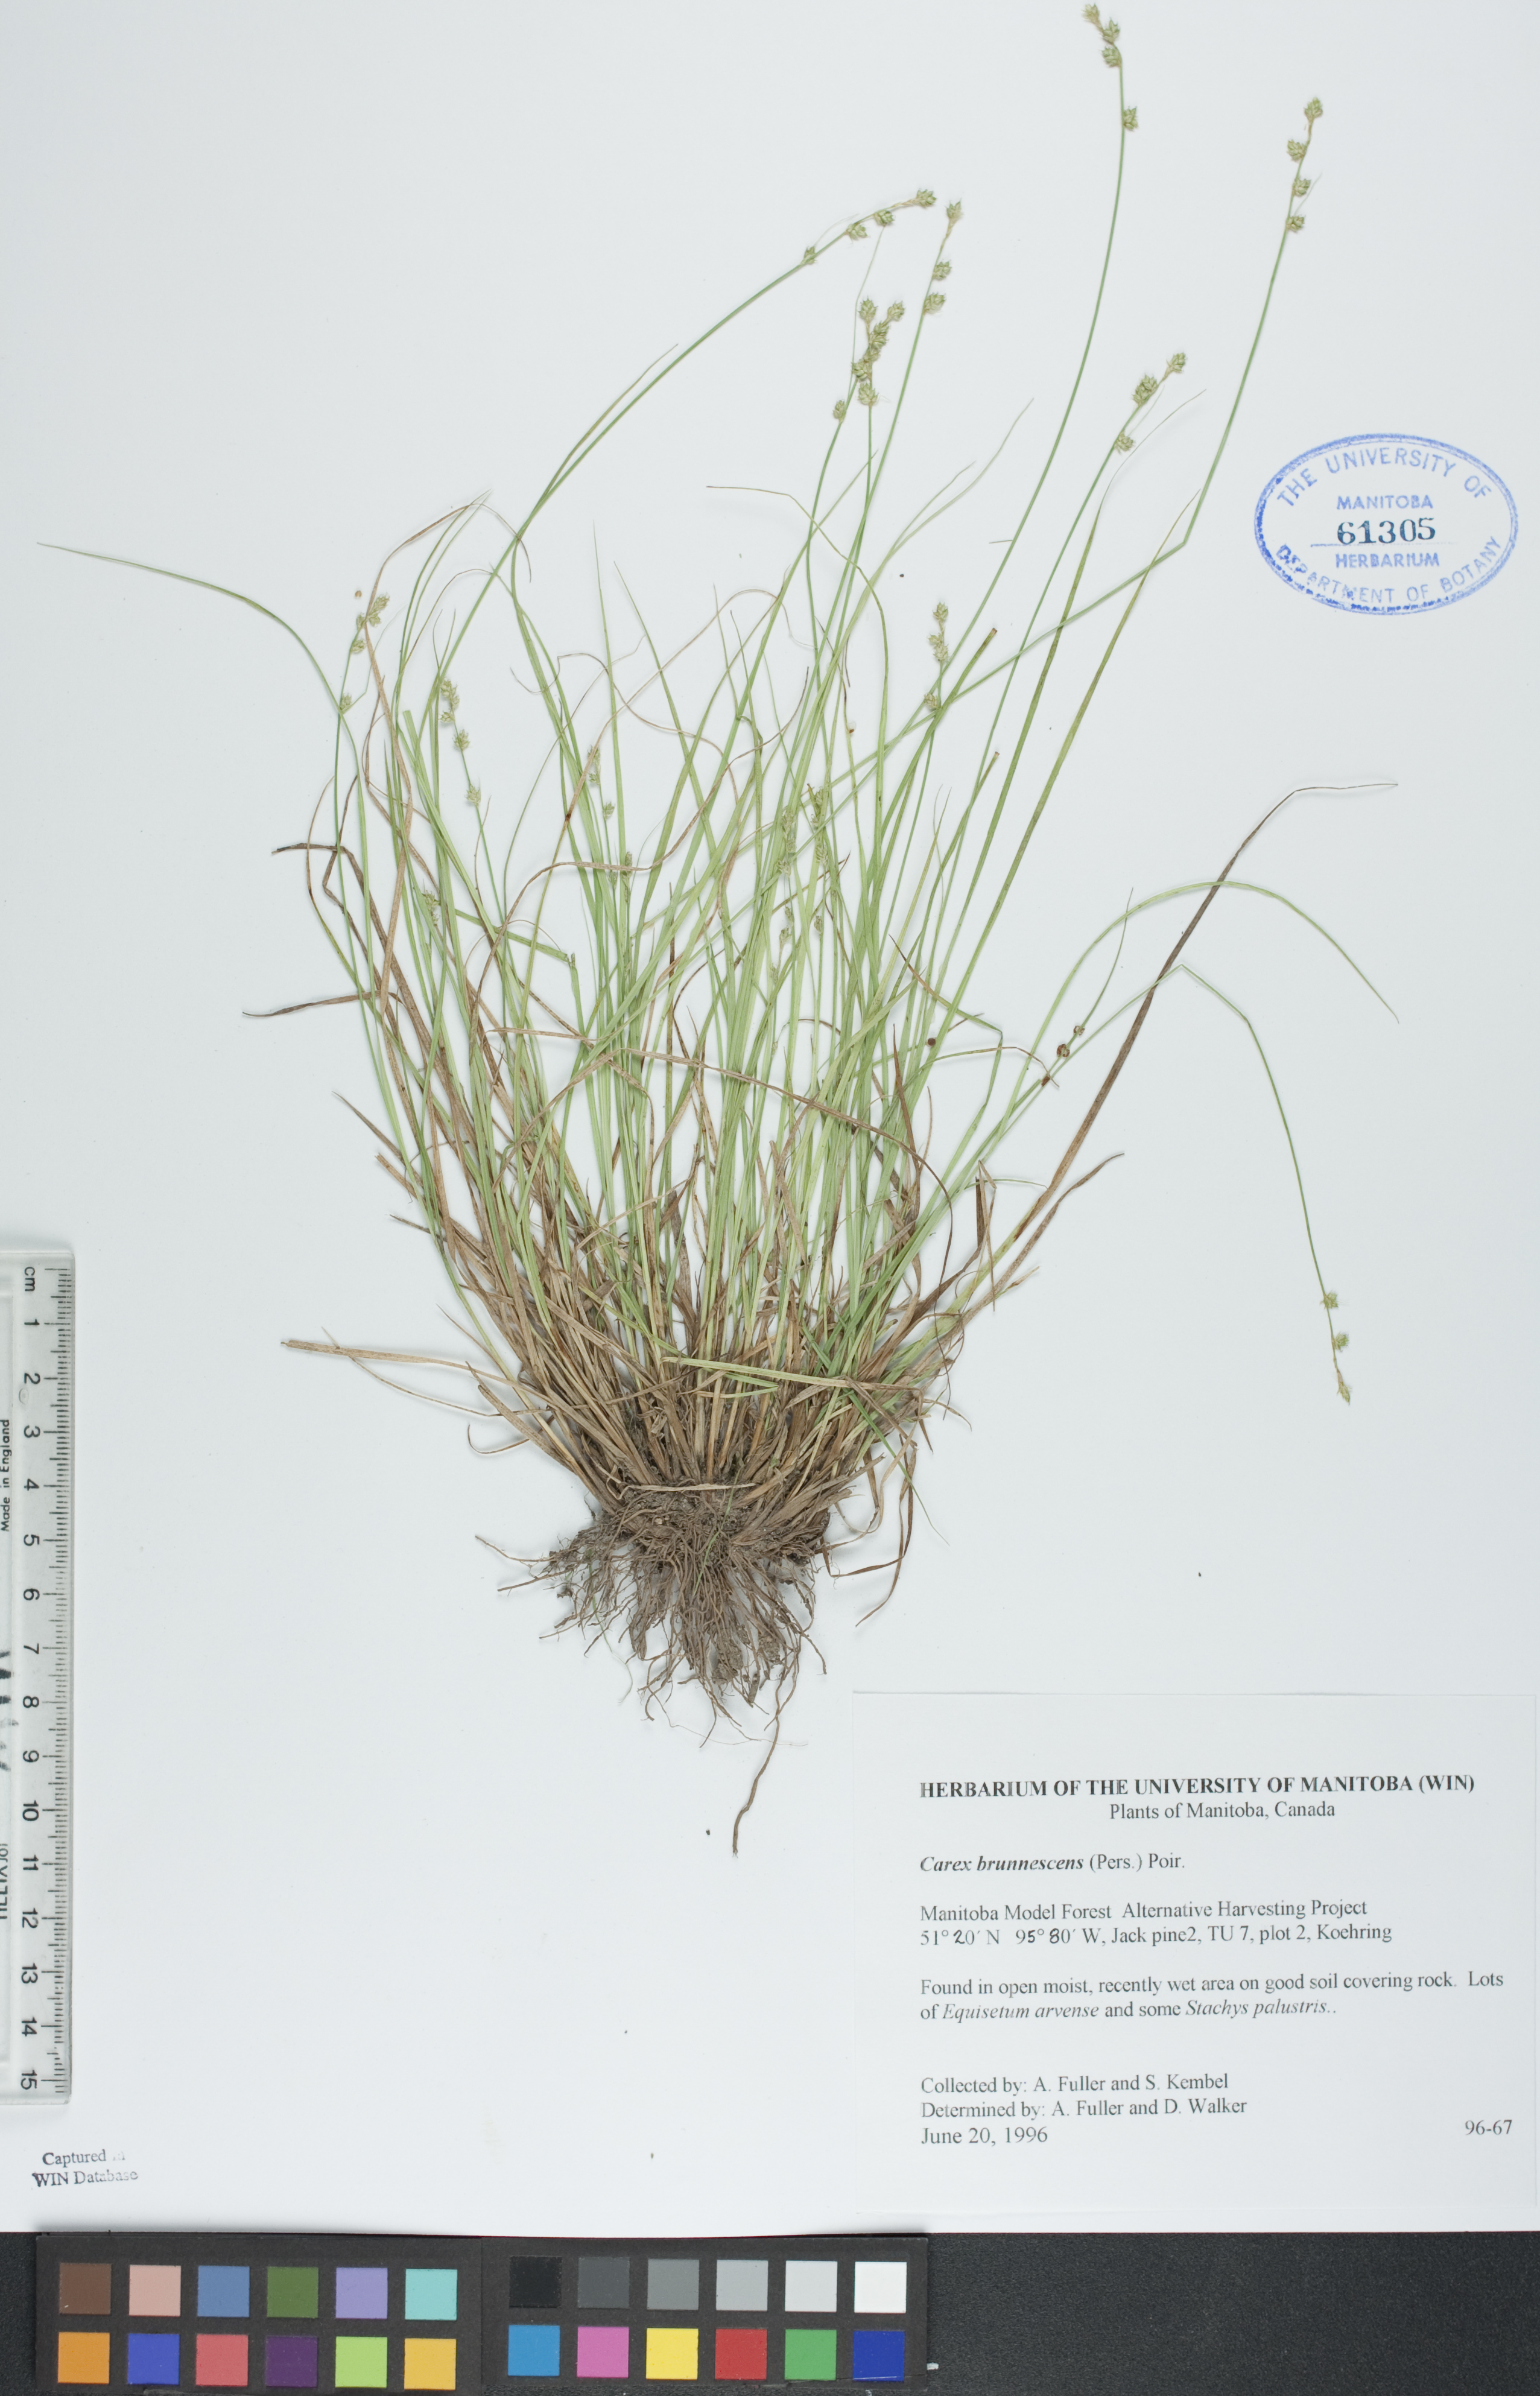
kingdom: Plantae
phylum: Tracheophyta
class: Liliopsida
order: Poales
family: Cyperaceae
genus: Carex
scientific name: Carex brunnescens
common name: Brown sedge
